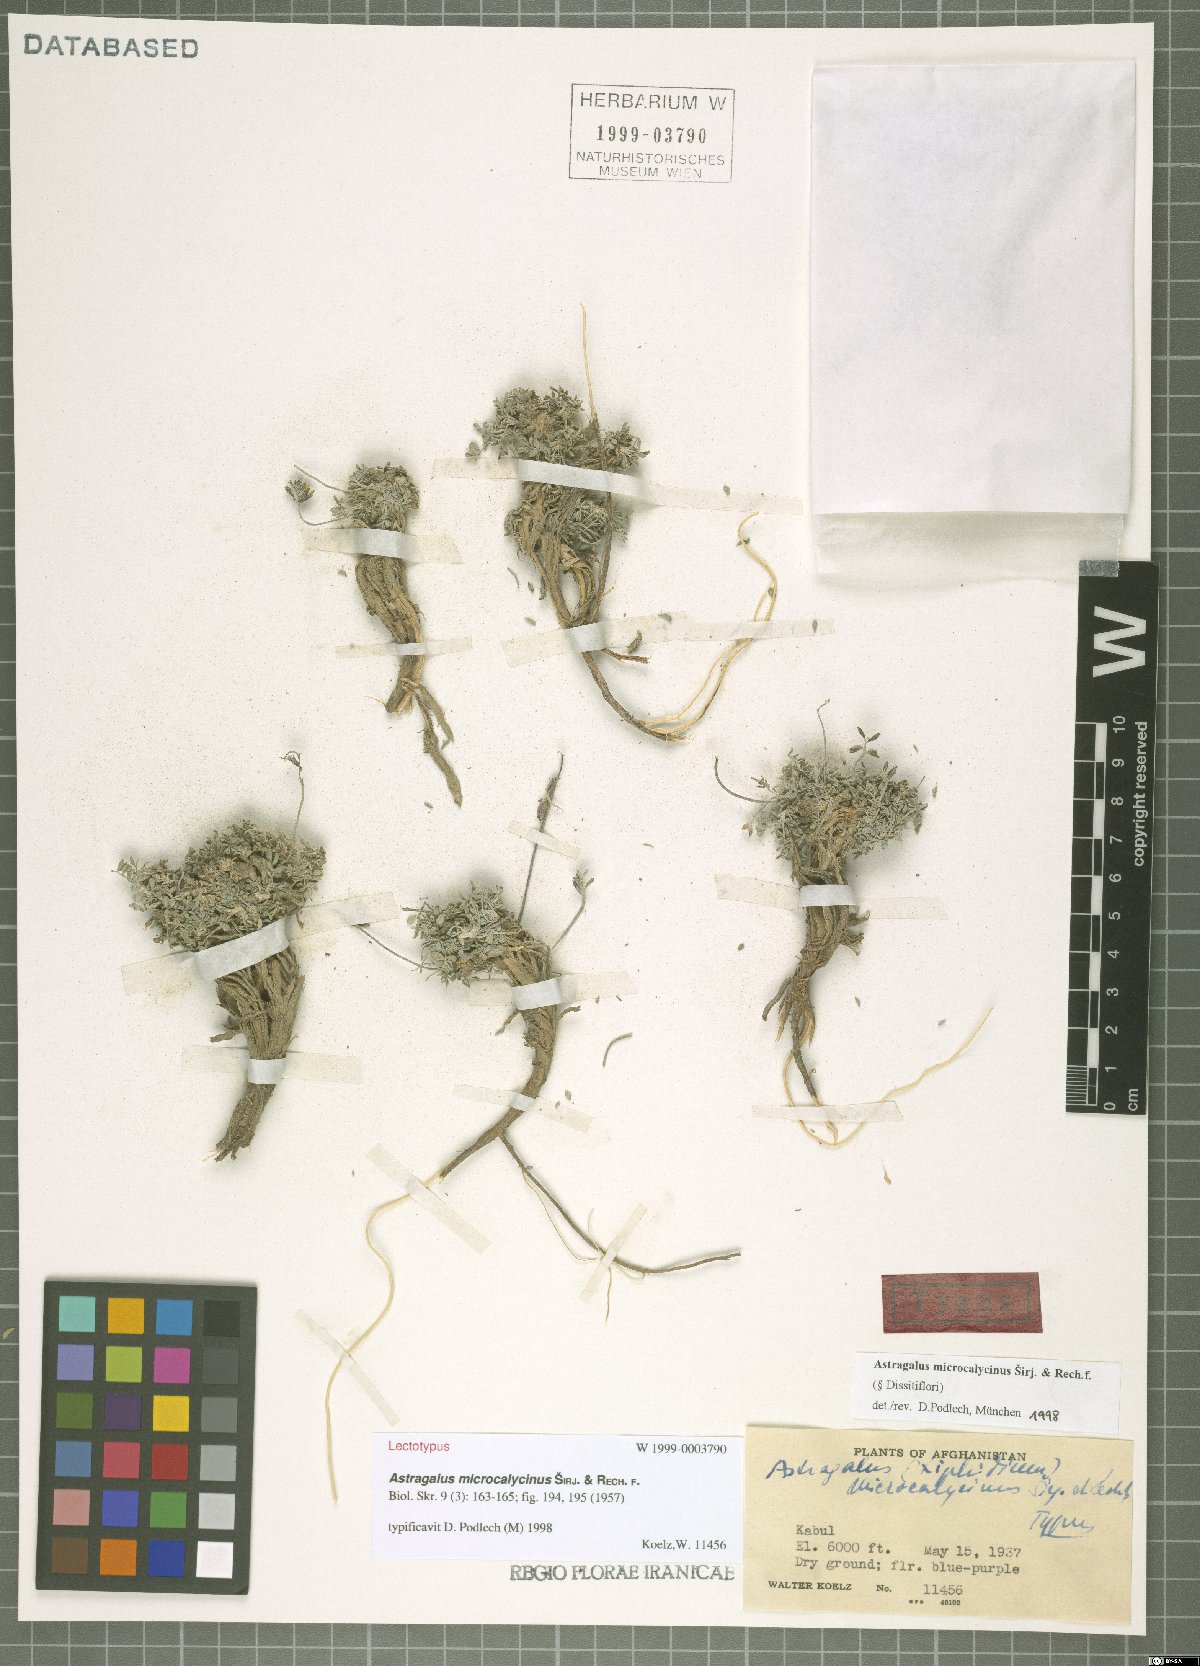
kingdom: Plantae
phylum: Tracheophyta
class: Magnoliopsida
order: Fabales
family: Fabaceae
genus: Astragalus
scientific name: Astragalus microcalycinus
